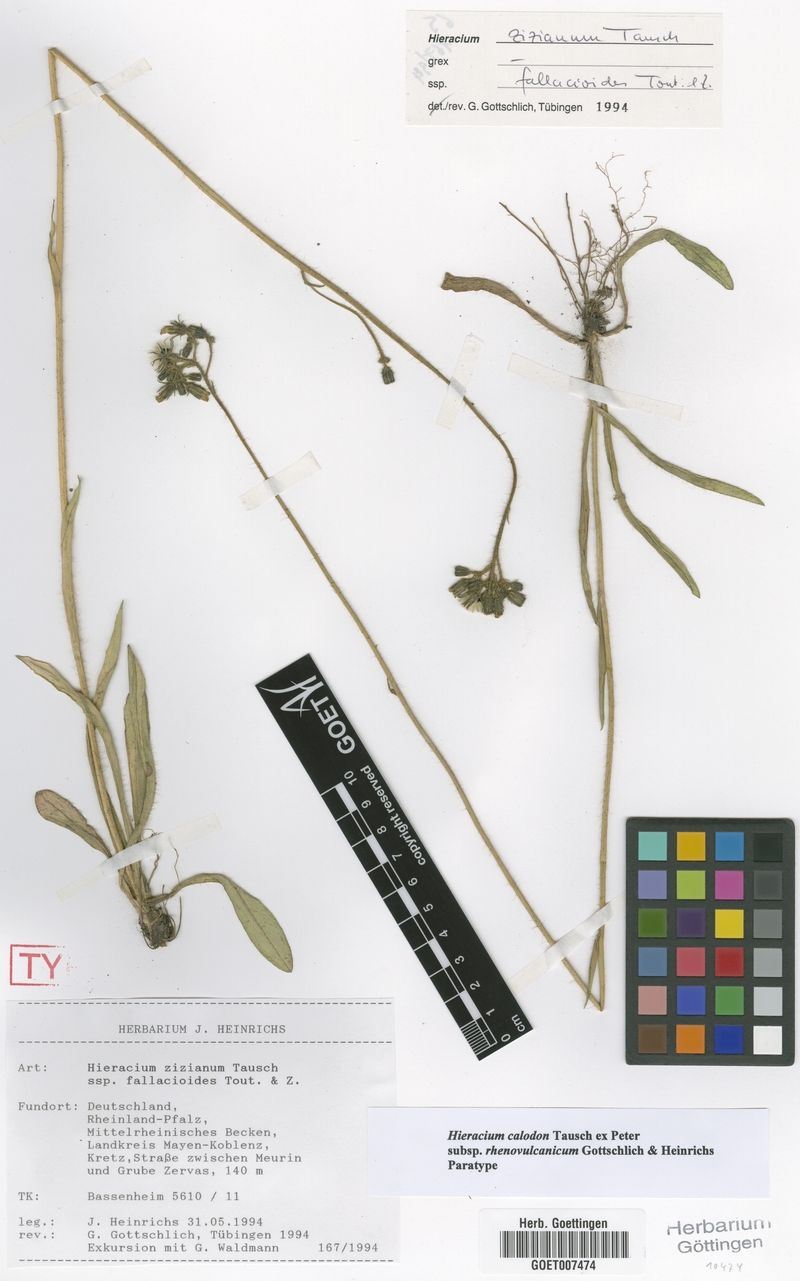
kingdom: Plantae
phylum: Tracheophyta
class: Magnoliopsida
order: Asterales
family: Asteraceae
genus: Pilosella
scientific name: Pilosella calodon
